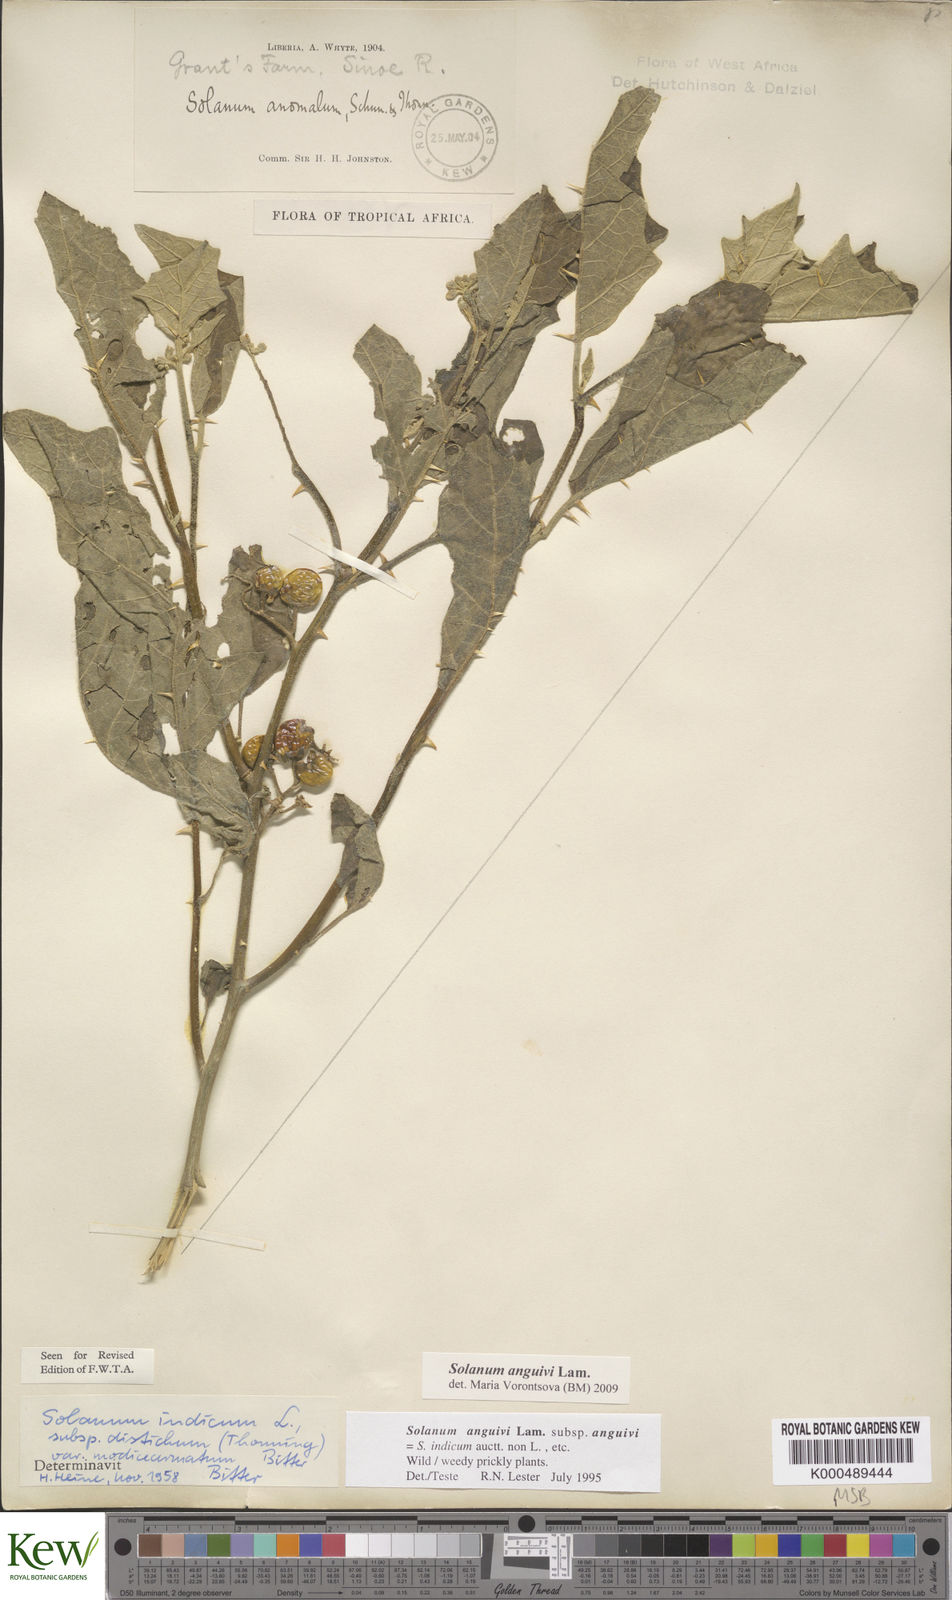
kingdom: Plantae
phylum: Tracheophyta
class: Magnoliopsida
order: Solanales
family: Solanaceae
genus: Solanum
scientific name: Solanum anguivi
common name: Forest bitterberry
